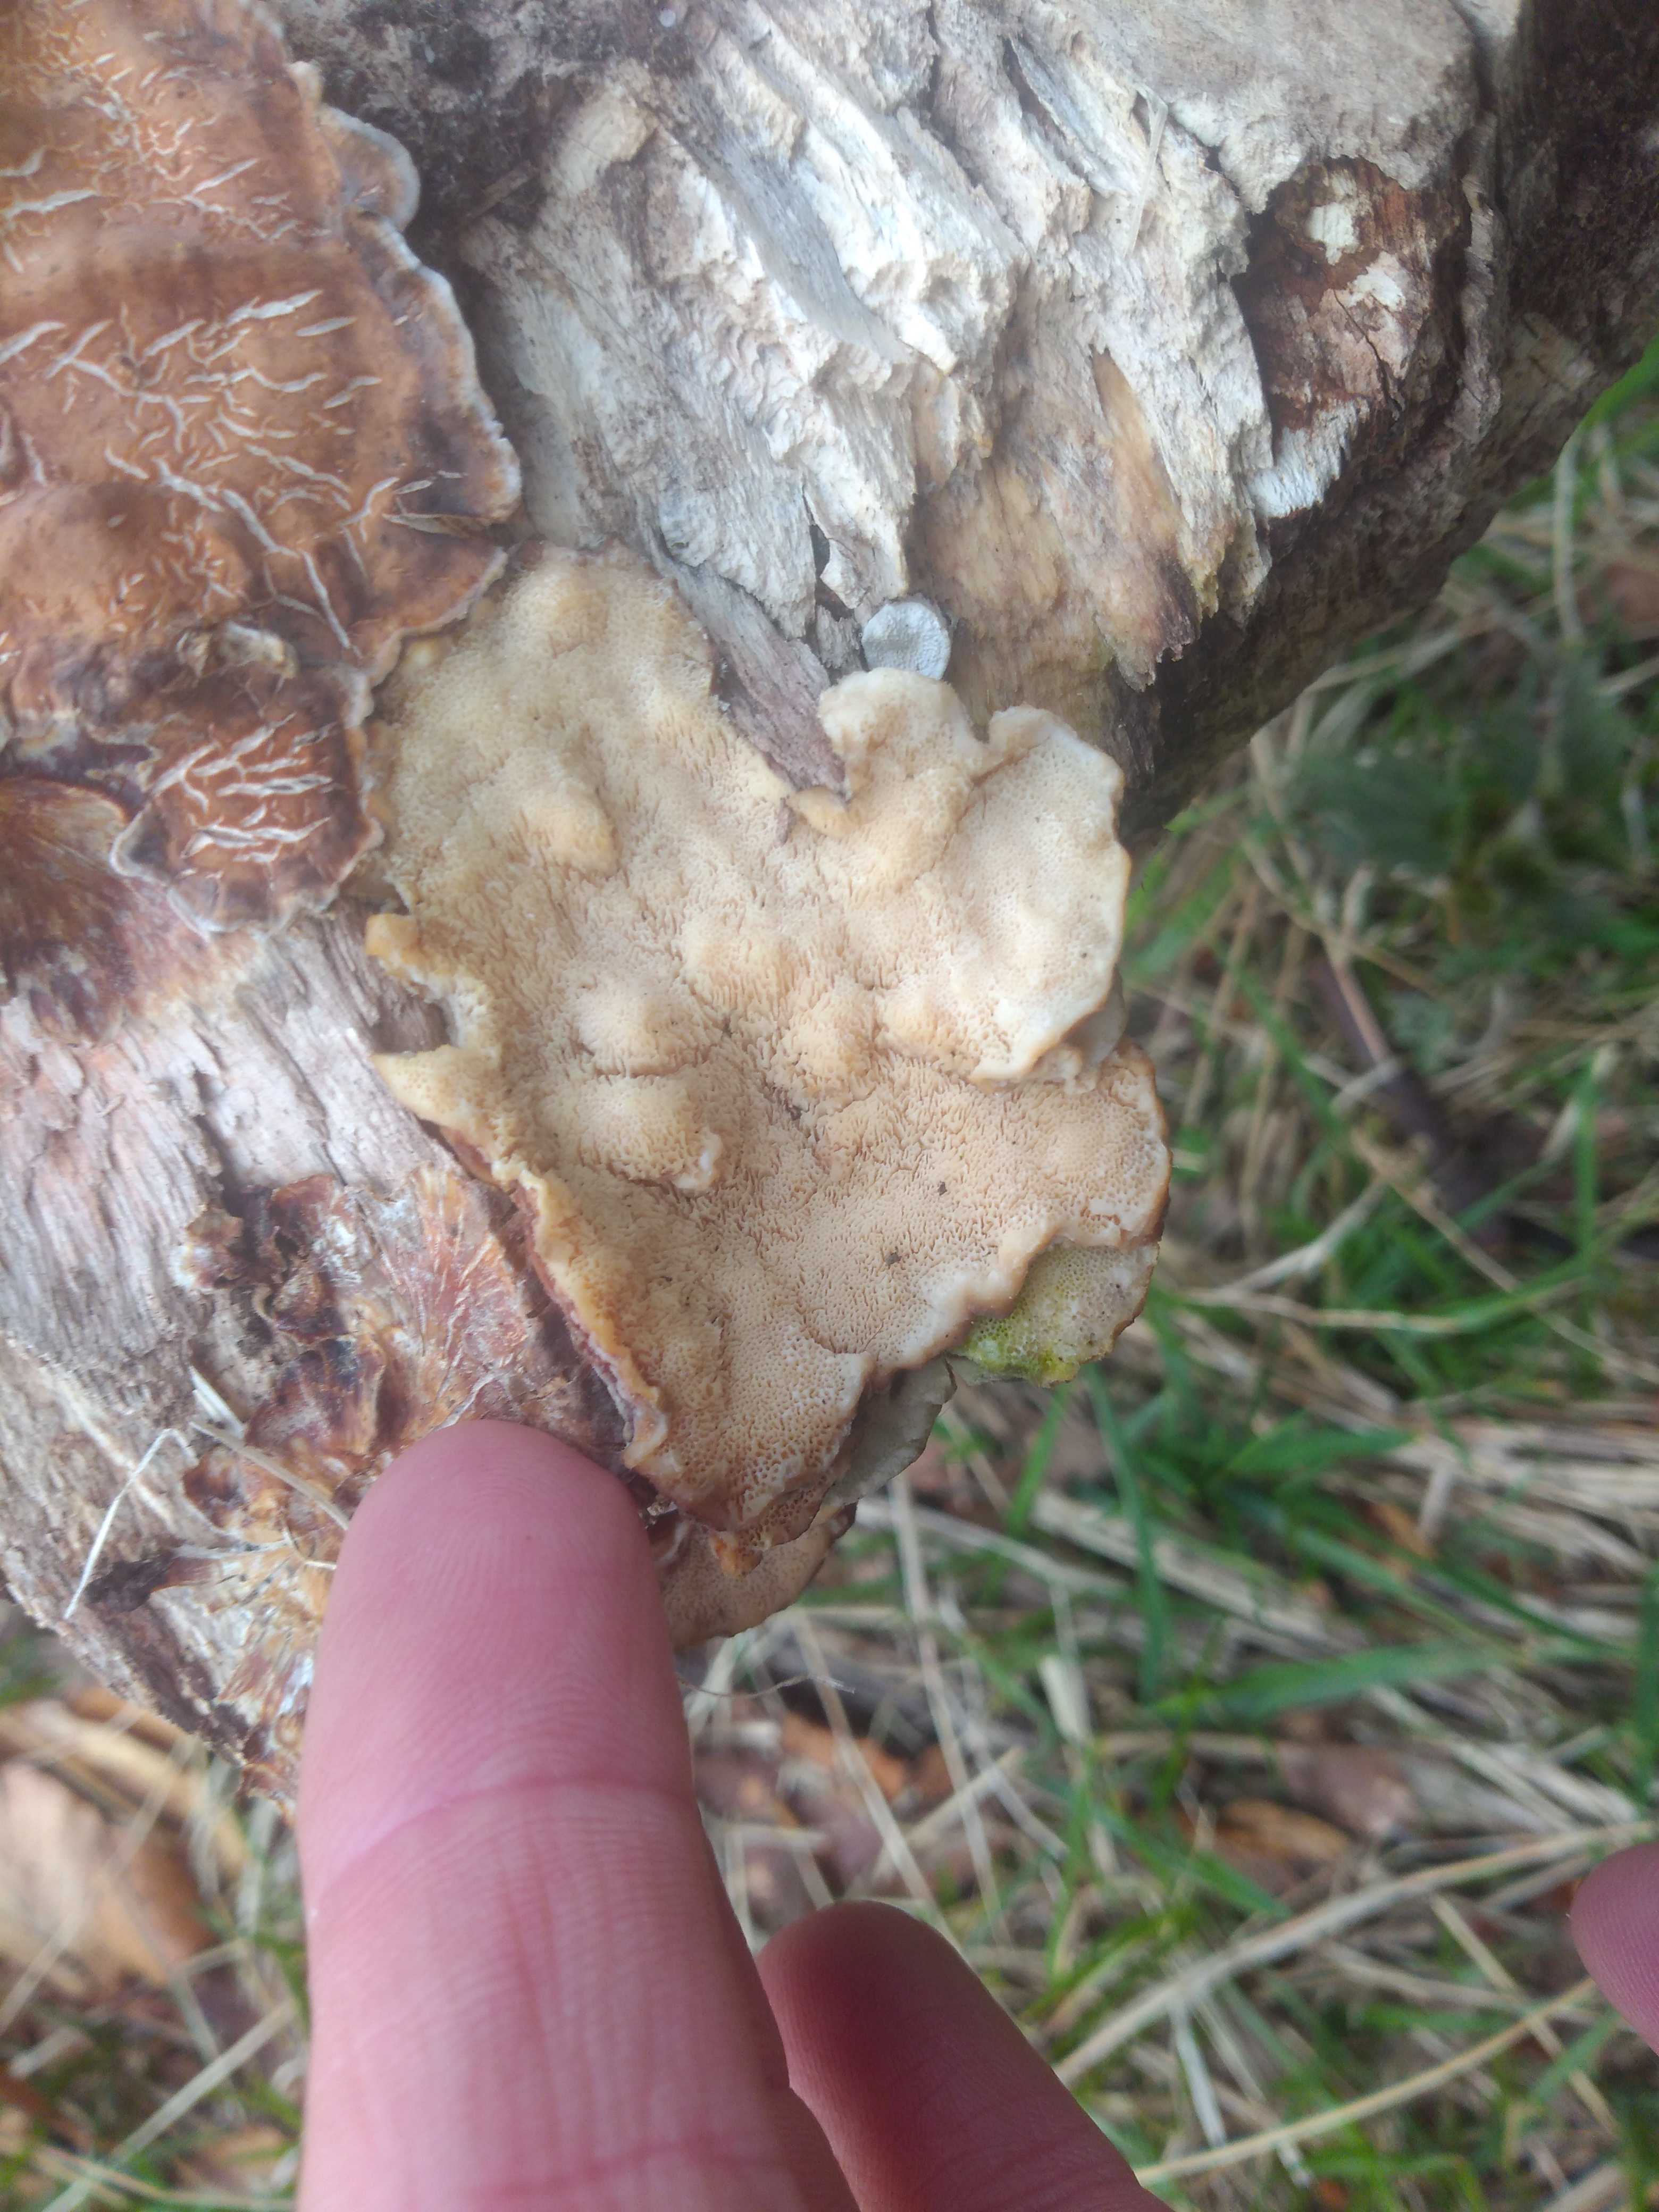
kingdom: Fungi
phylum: Basidiomycota
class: Agaricomycetes
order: Polyporales
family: Polyporaceae
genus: Trametes
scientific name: Trametes versicolor
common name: broget læderporesvamp
